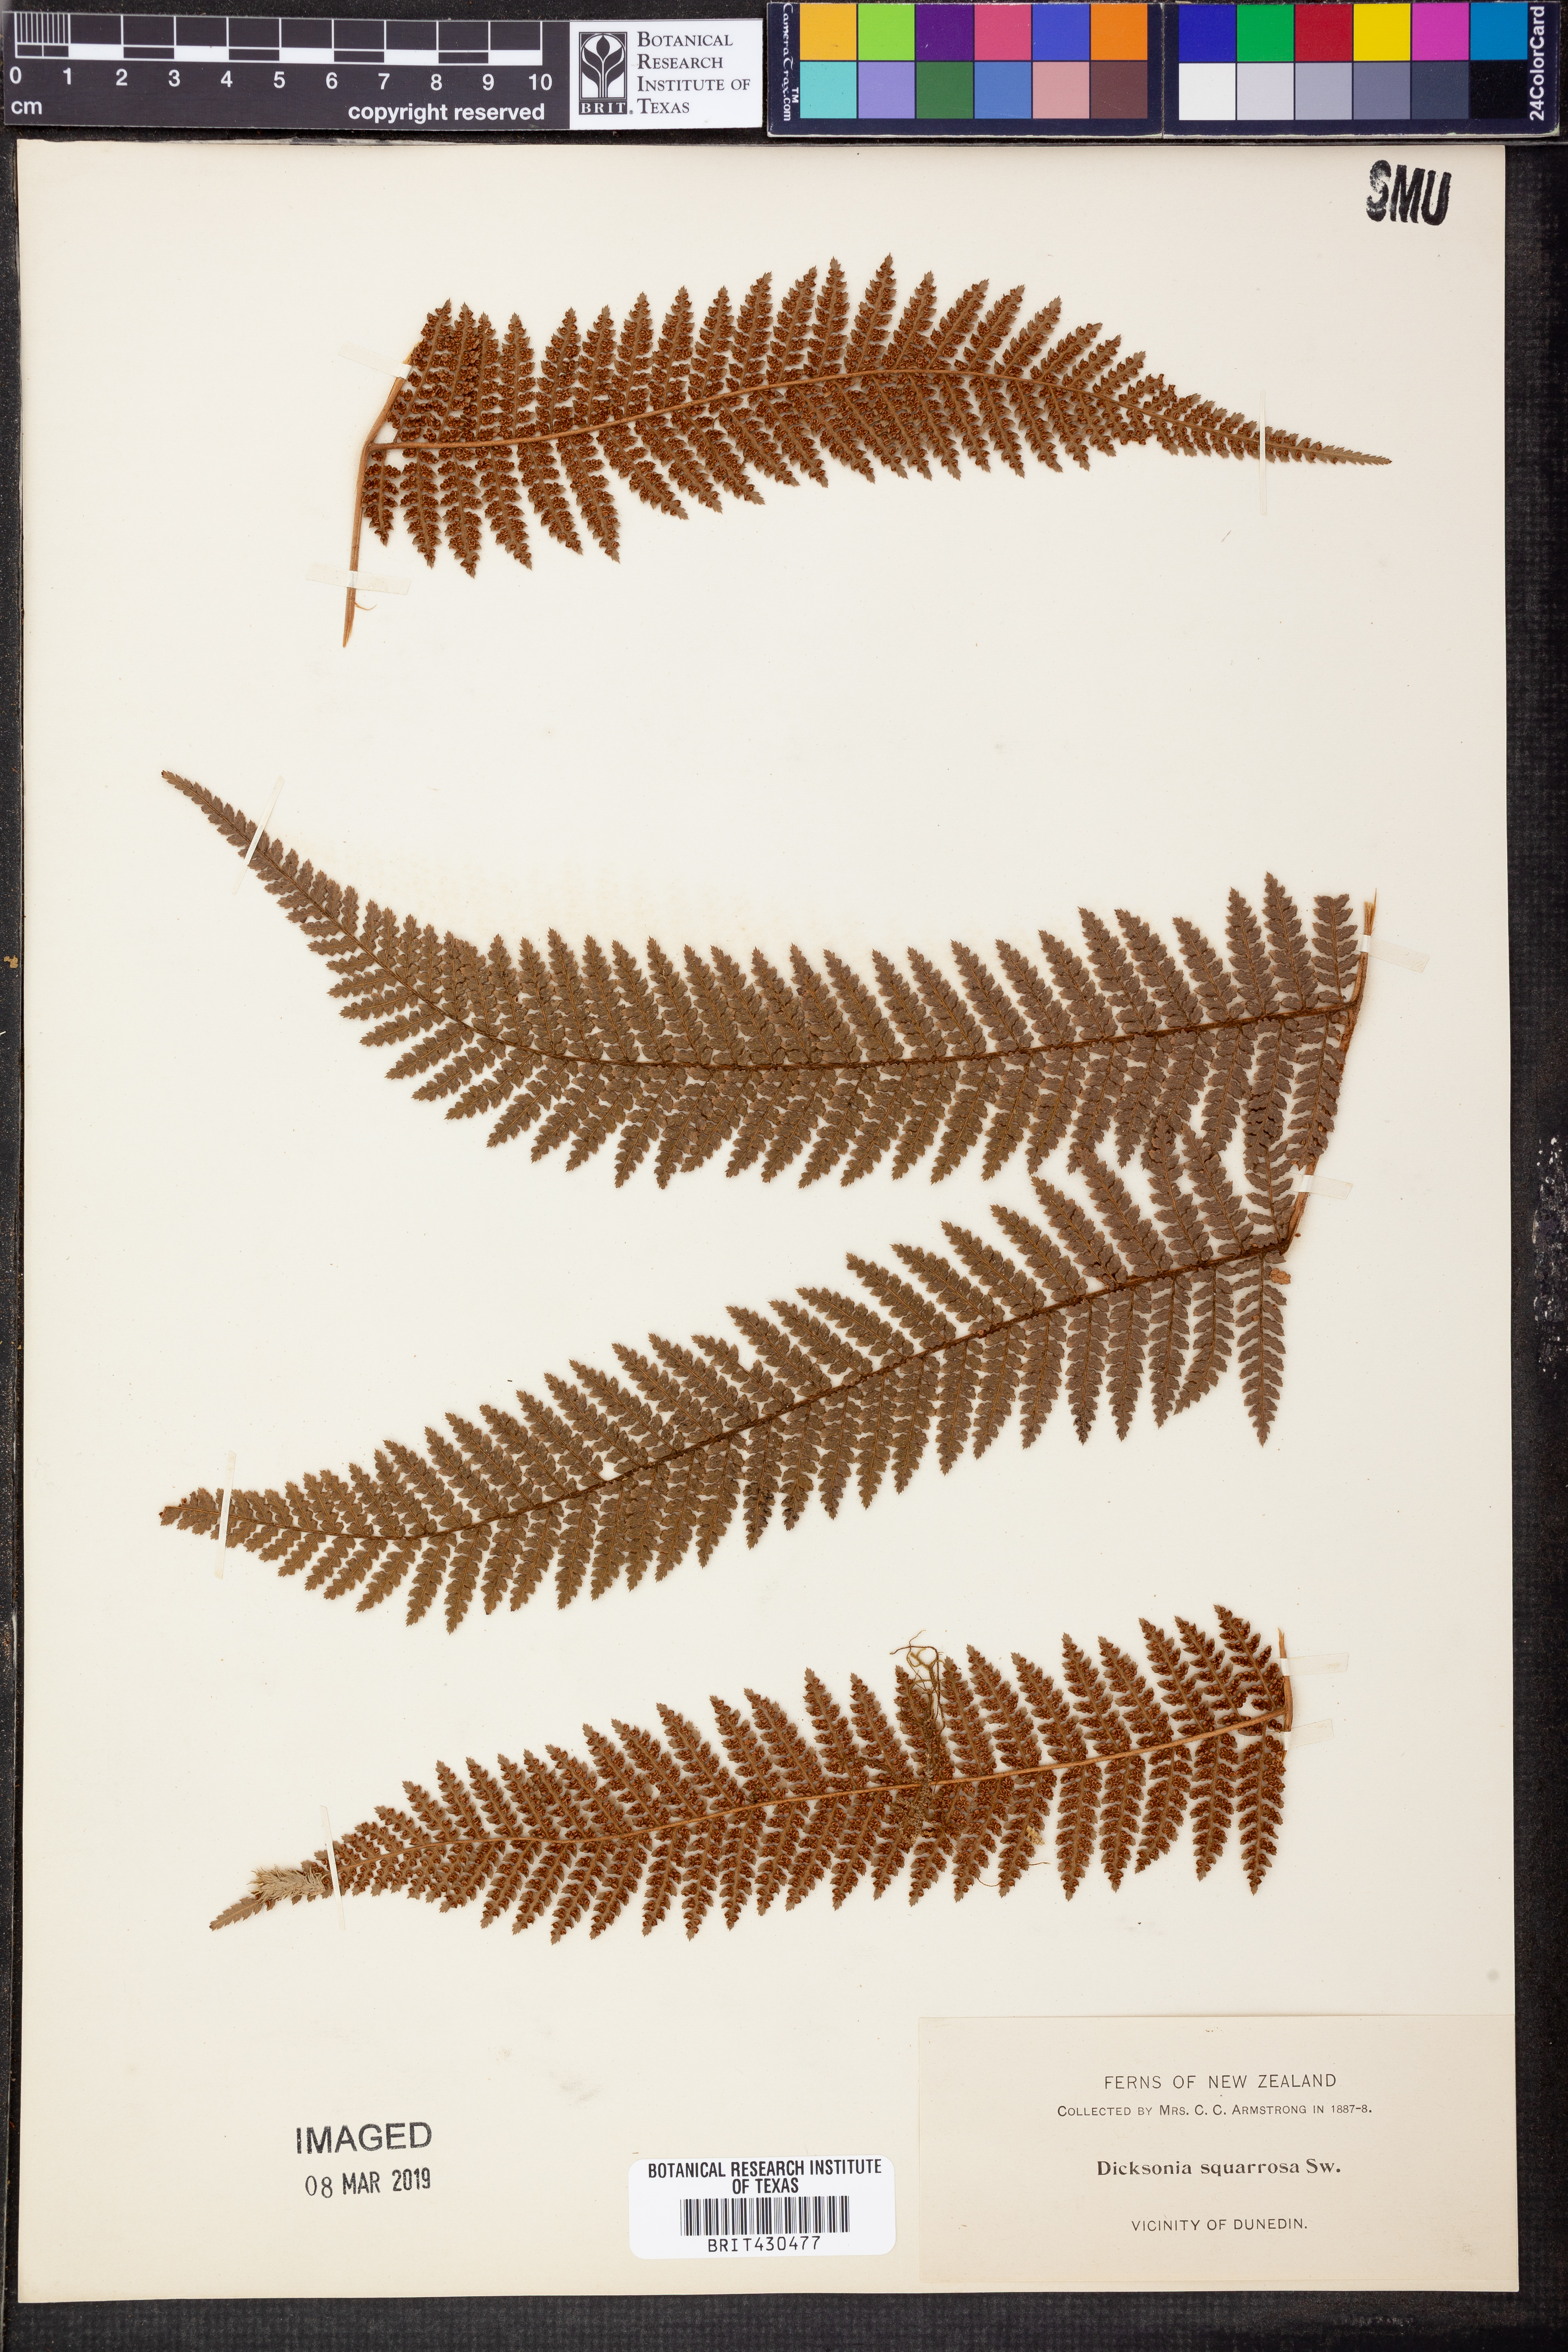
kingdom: Plantae
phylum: Tracheophyta
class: Polypodiopsida
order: Cyatheales
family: Dicksoniaceae
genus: Dicksonia
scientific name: Dicksonia squarrosa
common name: Hard treefern
